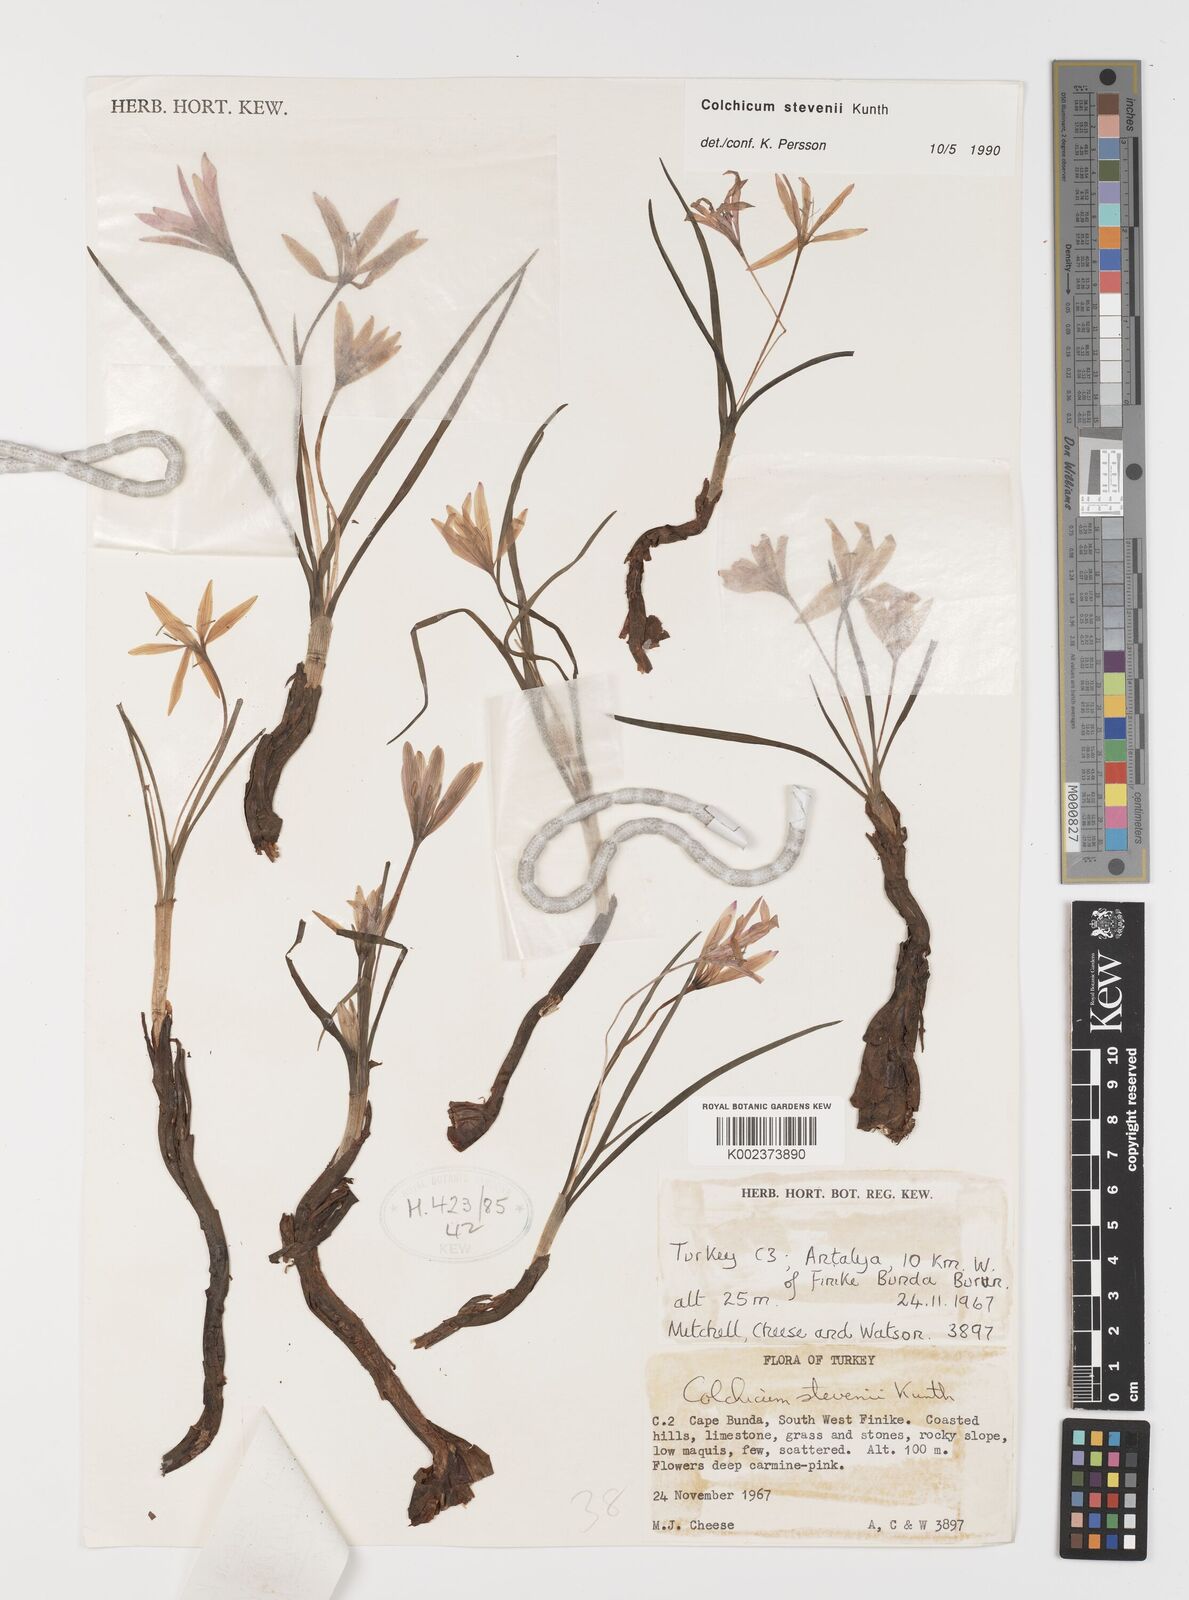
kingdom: Plantae
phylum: Tracheophyta
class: Liliopsida
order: Liliales
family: Colchicaceae
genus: Colchicum
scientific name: Colchicum stevenii
